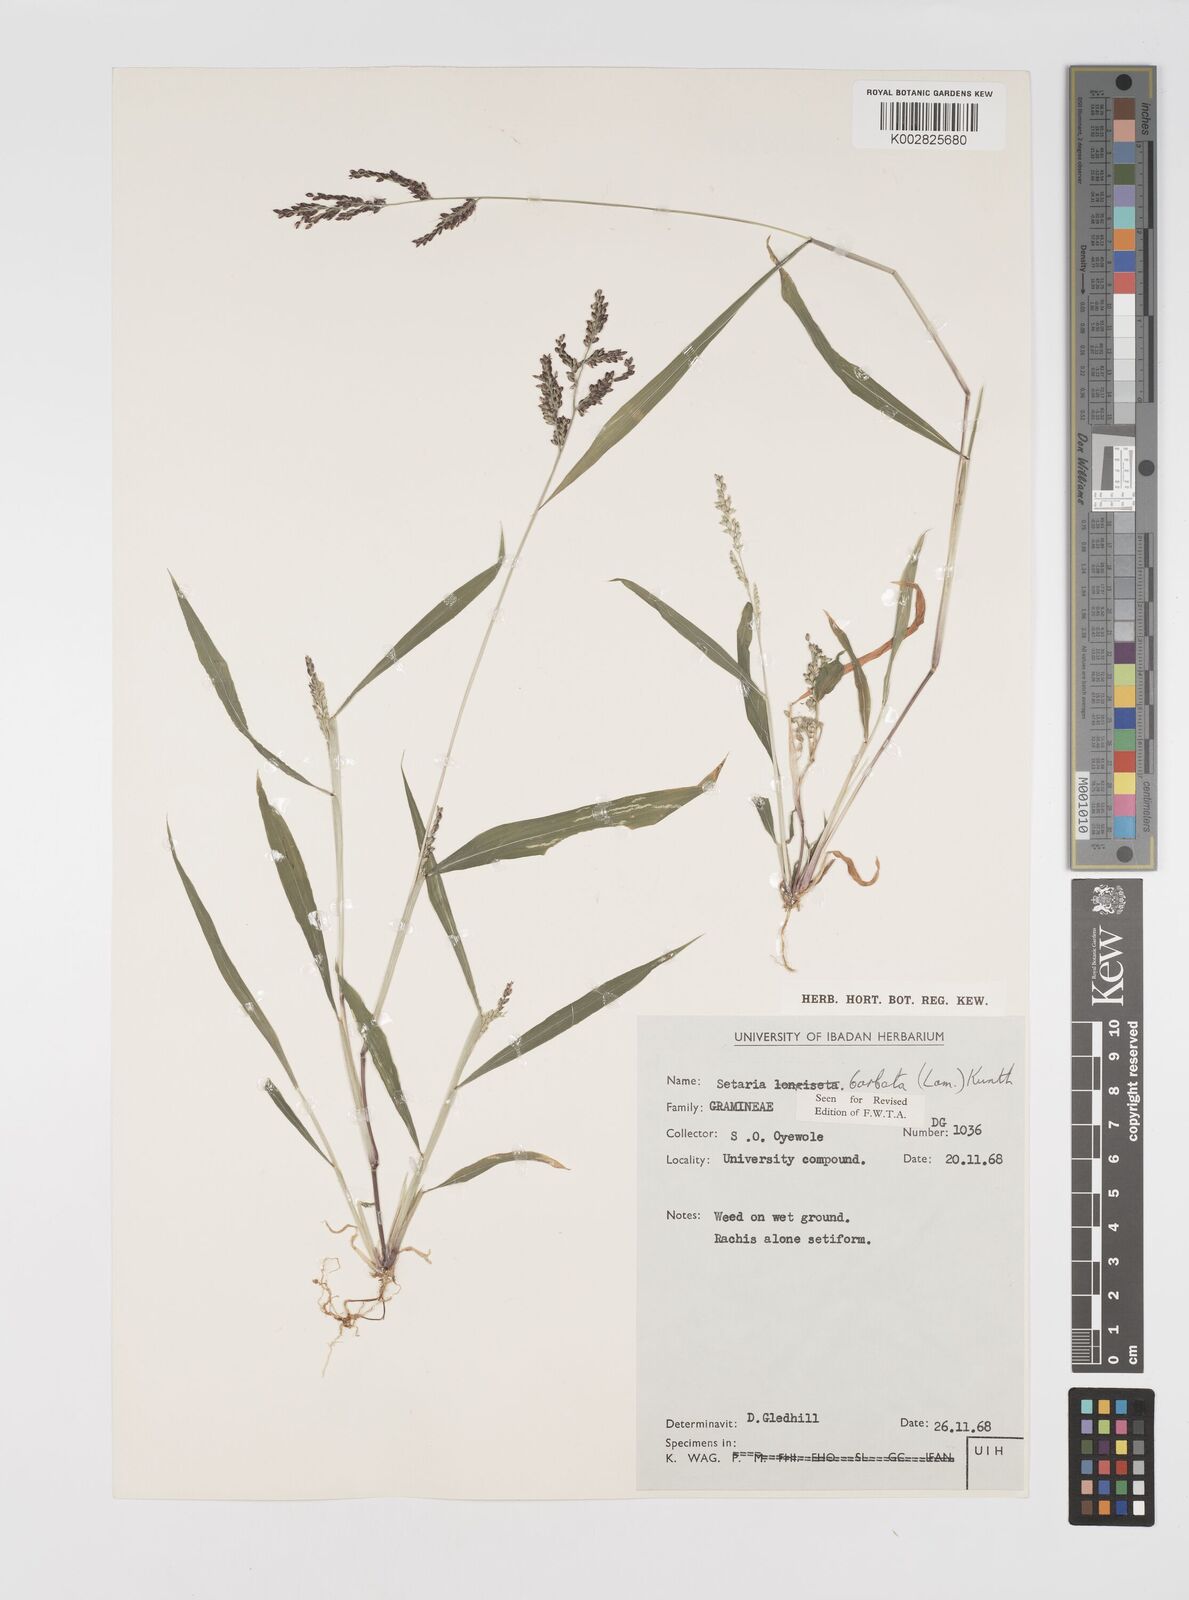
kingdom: Plantae
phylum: Tracheophyta
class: Liliopsida
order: Poales
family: Poaceae
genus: Setaria
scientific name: Setaria barbata
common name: East indian bristlegrass
